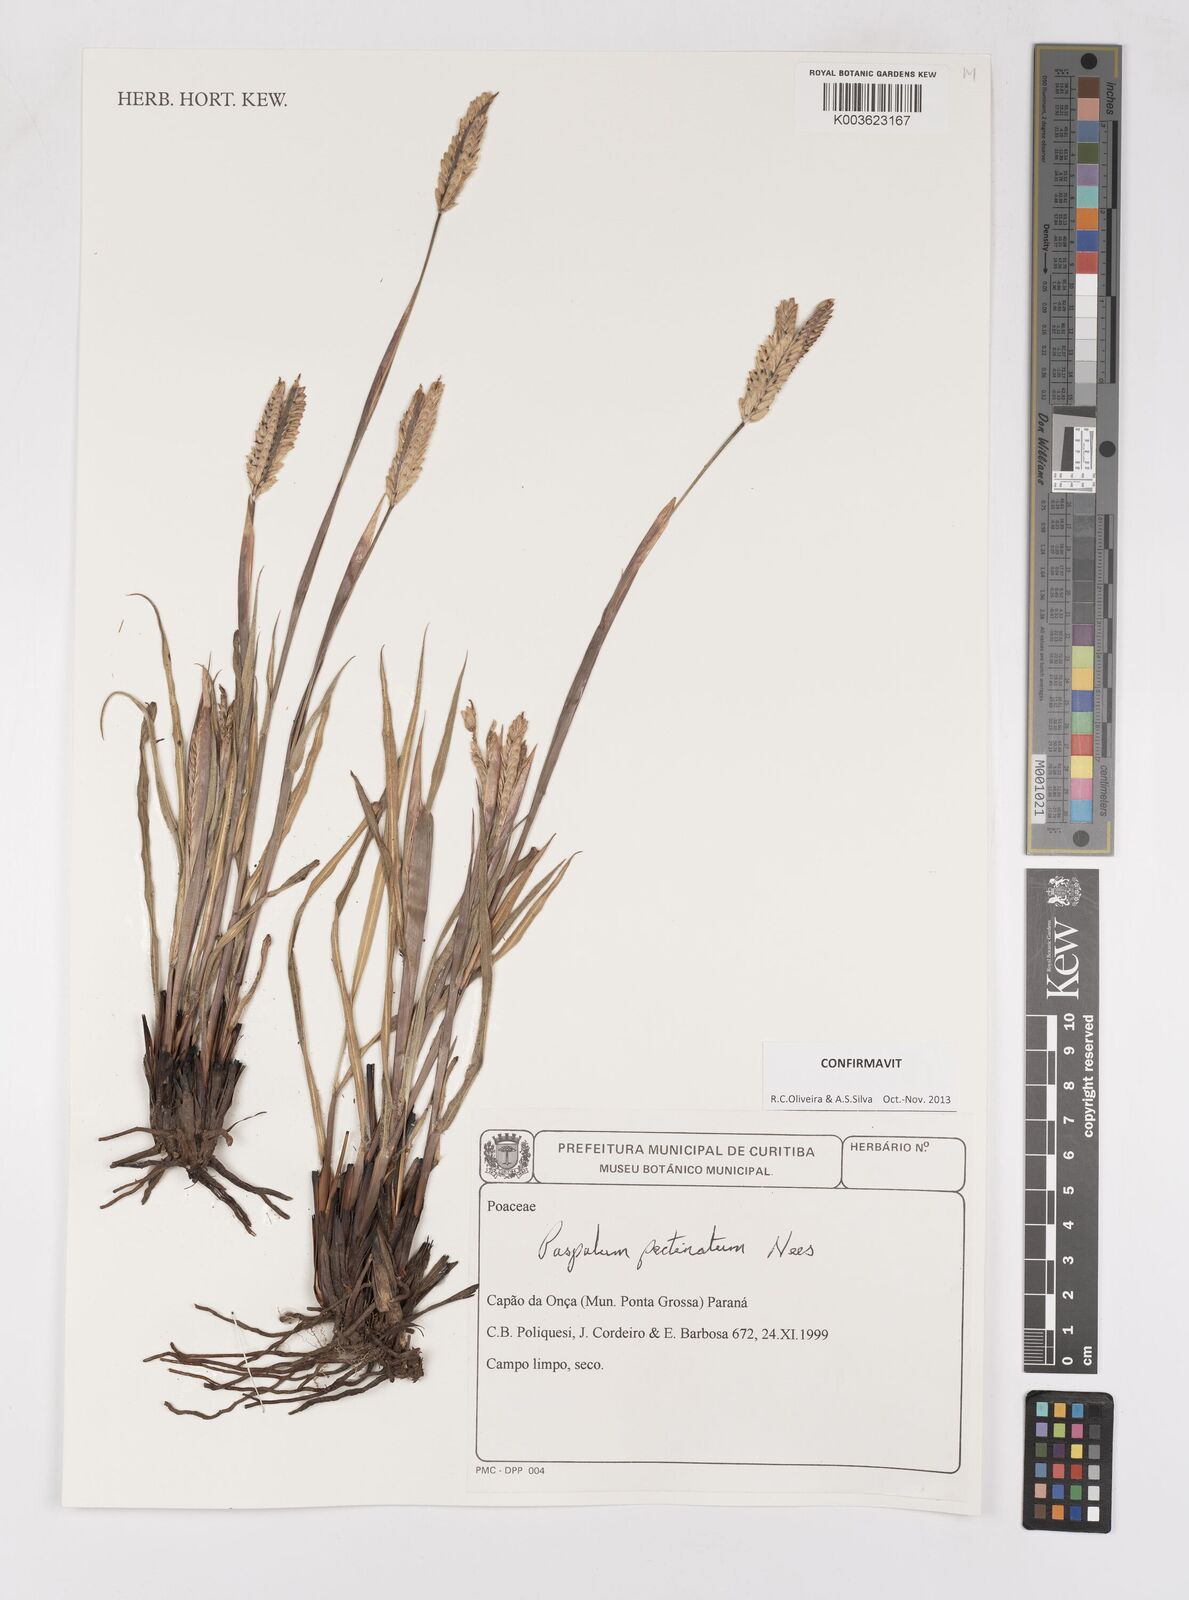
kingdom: Plantae
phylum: Tracheophyta
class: Liliopsida
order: Poales
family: Poaceae
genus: Paspalum
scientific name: Paspalum pectinatum
